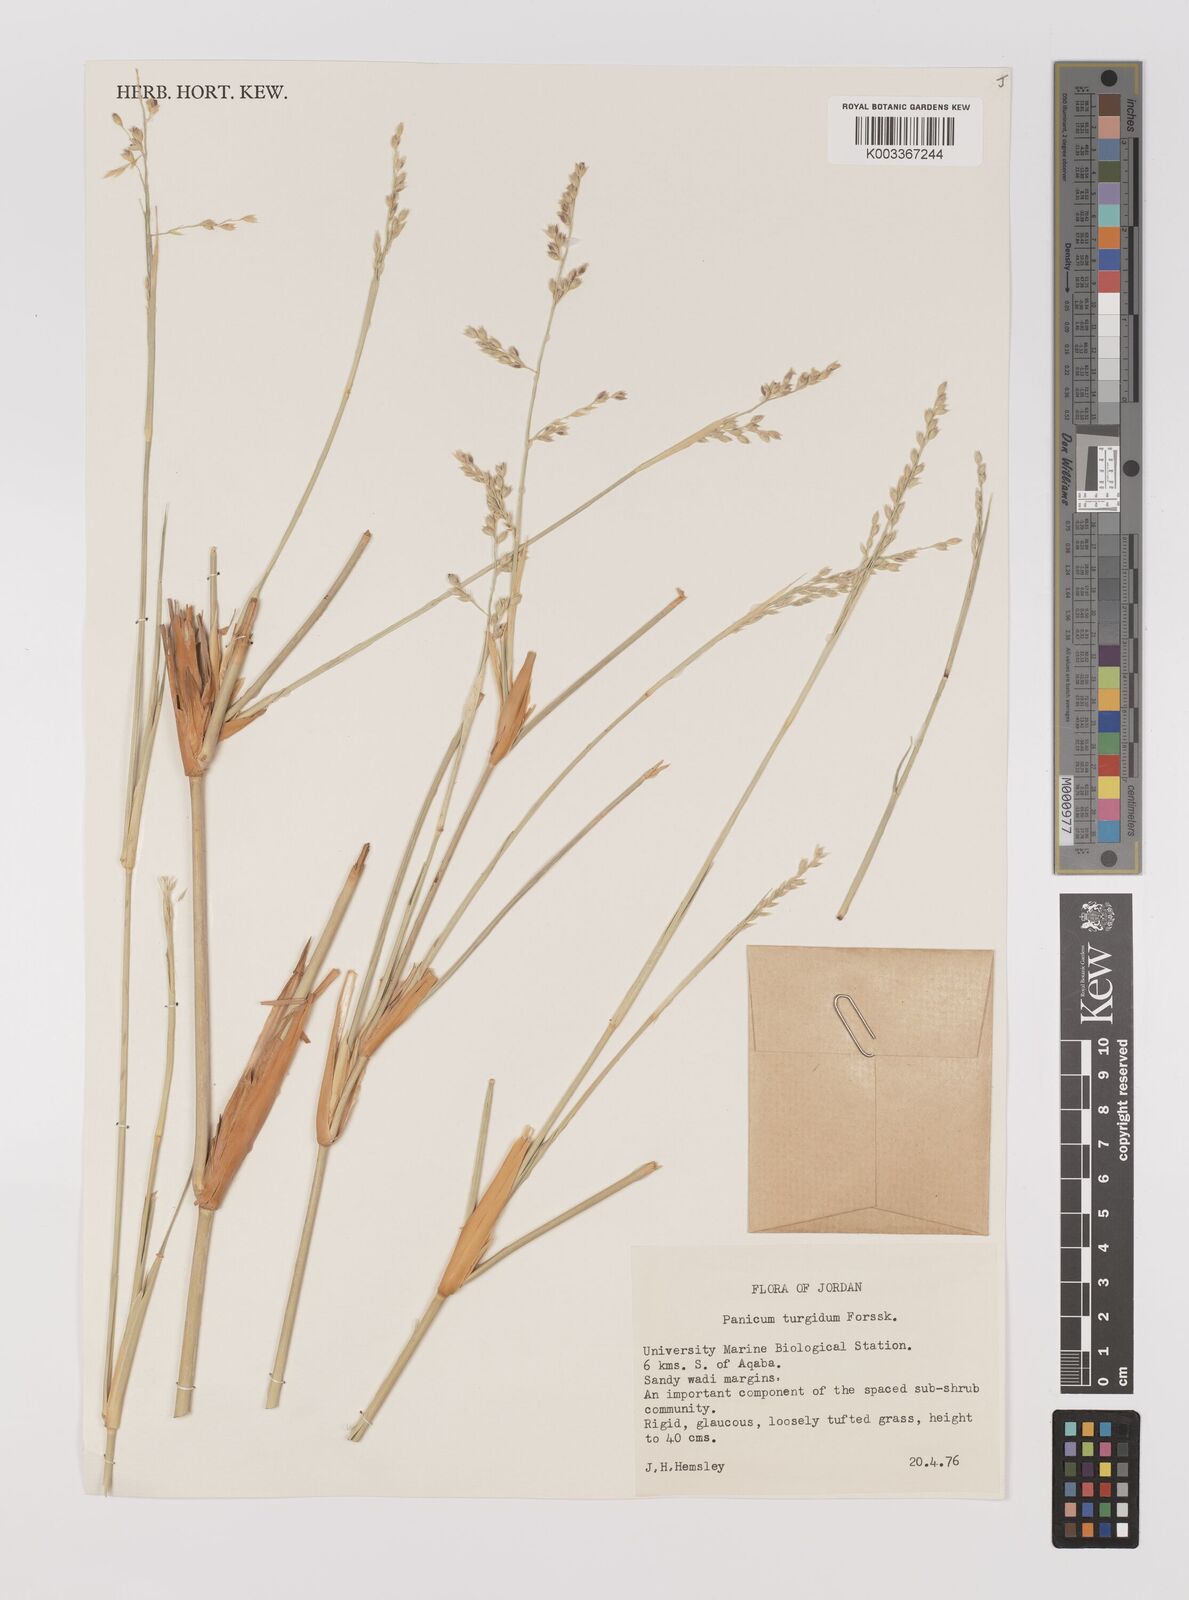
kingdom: Plantae
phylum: Tracheophyta
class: Liliopsida
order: Poales
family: Poaceae
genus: Panicum
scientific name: Panicum turgidum
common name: Desert grass
